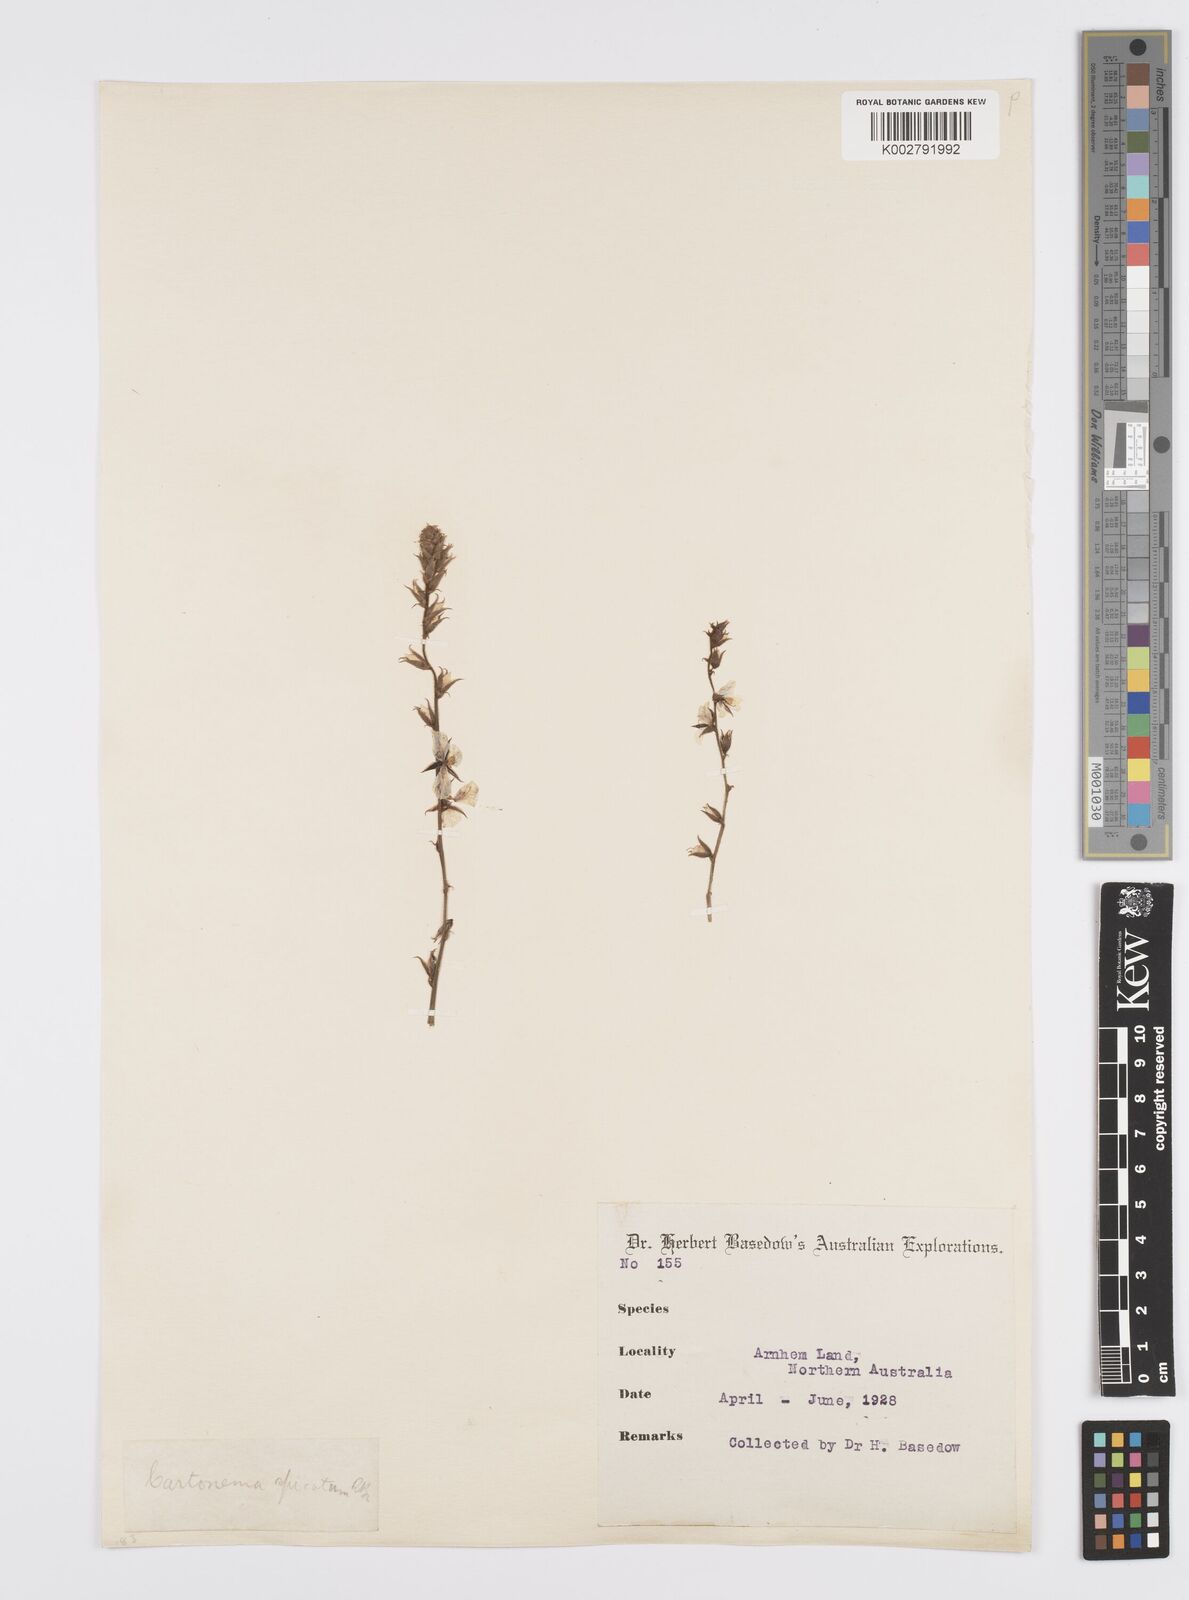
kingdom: Plantae
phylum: Tracheophyta
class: Liliopsida
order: Commelinales
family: Commelinaceae
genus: Cartonema
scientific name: Cartonema spicatum
